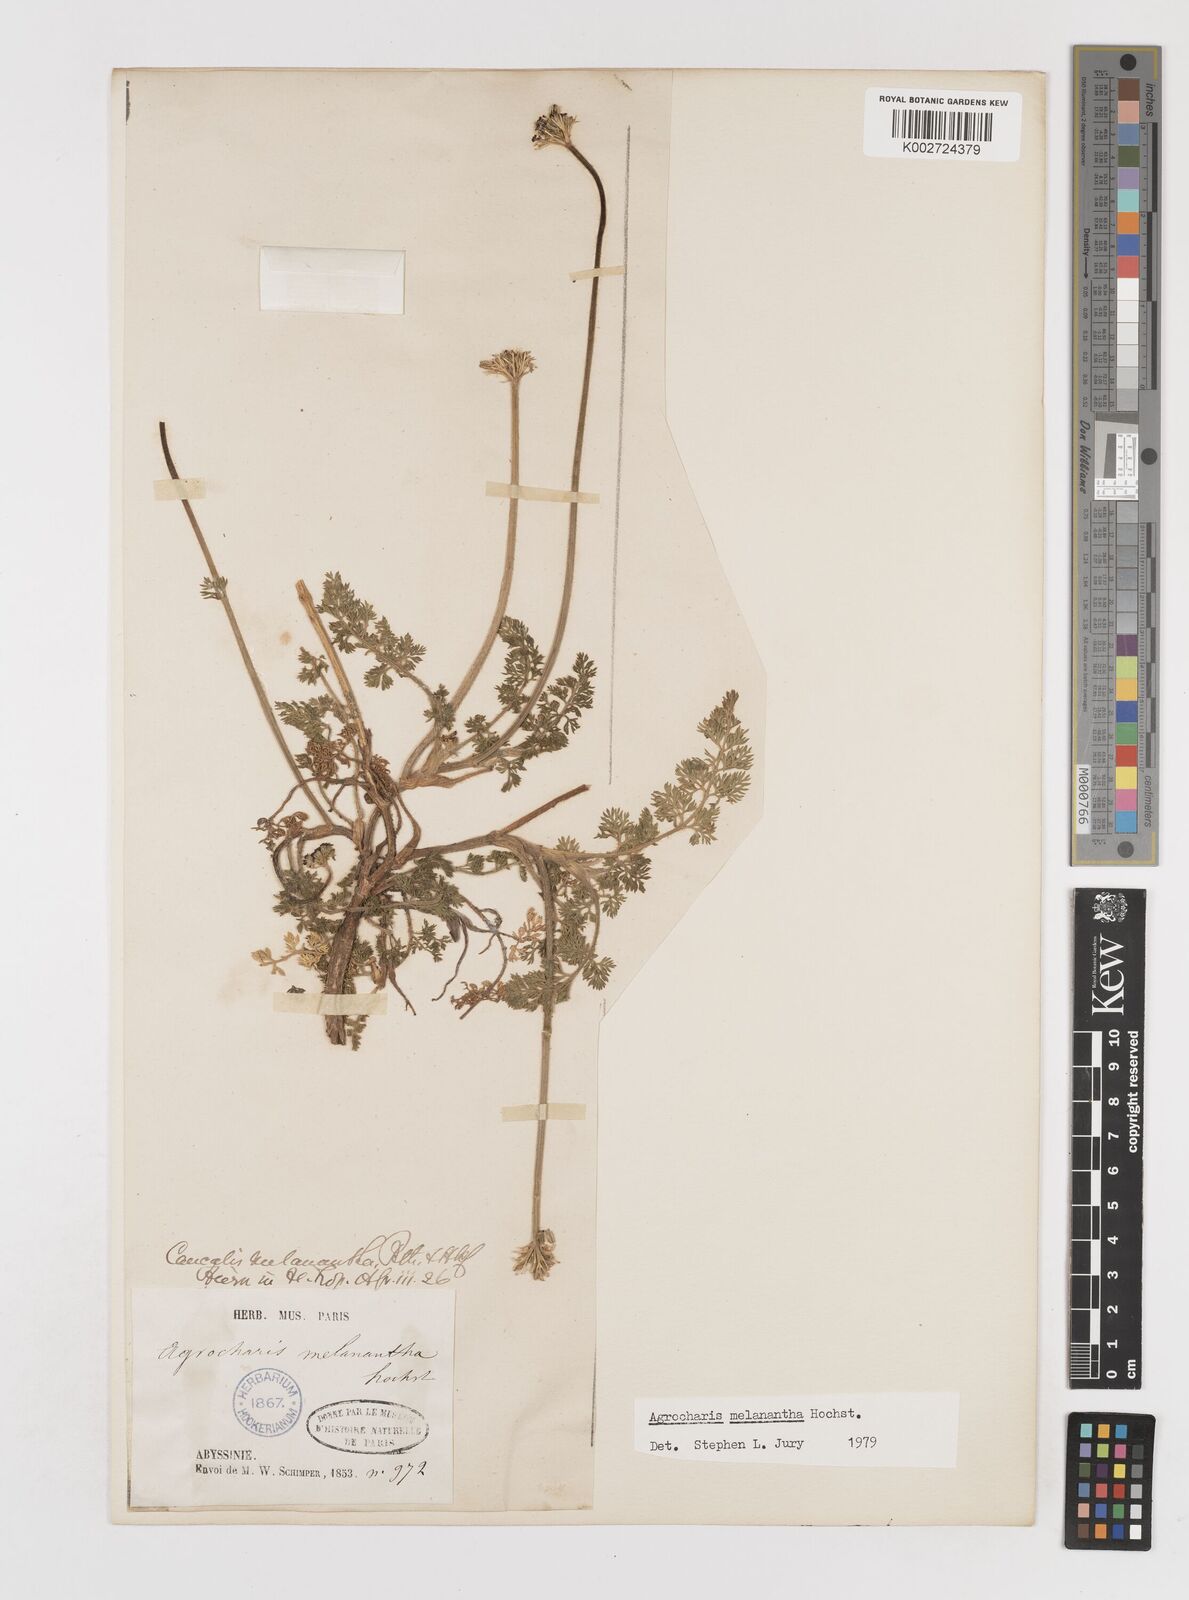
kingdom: Plantae
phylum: Tracheophyta
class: Magnoliopsida
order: Apiales
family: Apiaceae
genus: Daucus
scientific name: Daucus melananthus
